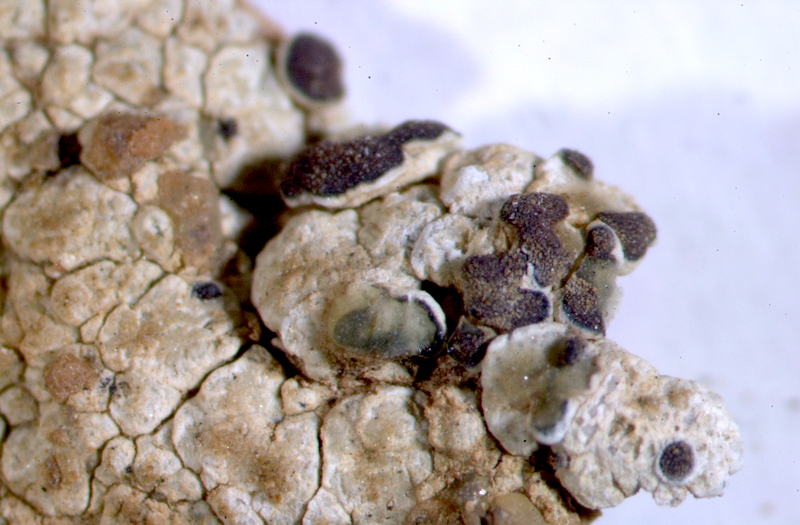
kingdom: Fungi
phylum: Ascomycota
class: Lecanoromycetes
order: Lecanorales
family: Lecanoraceae
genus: Omphalodina
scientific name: Omphalodina pseudistera
